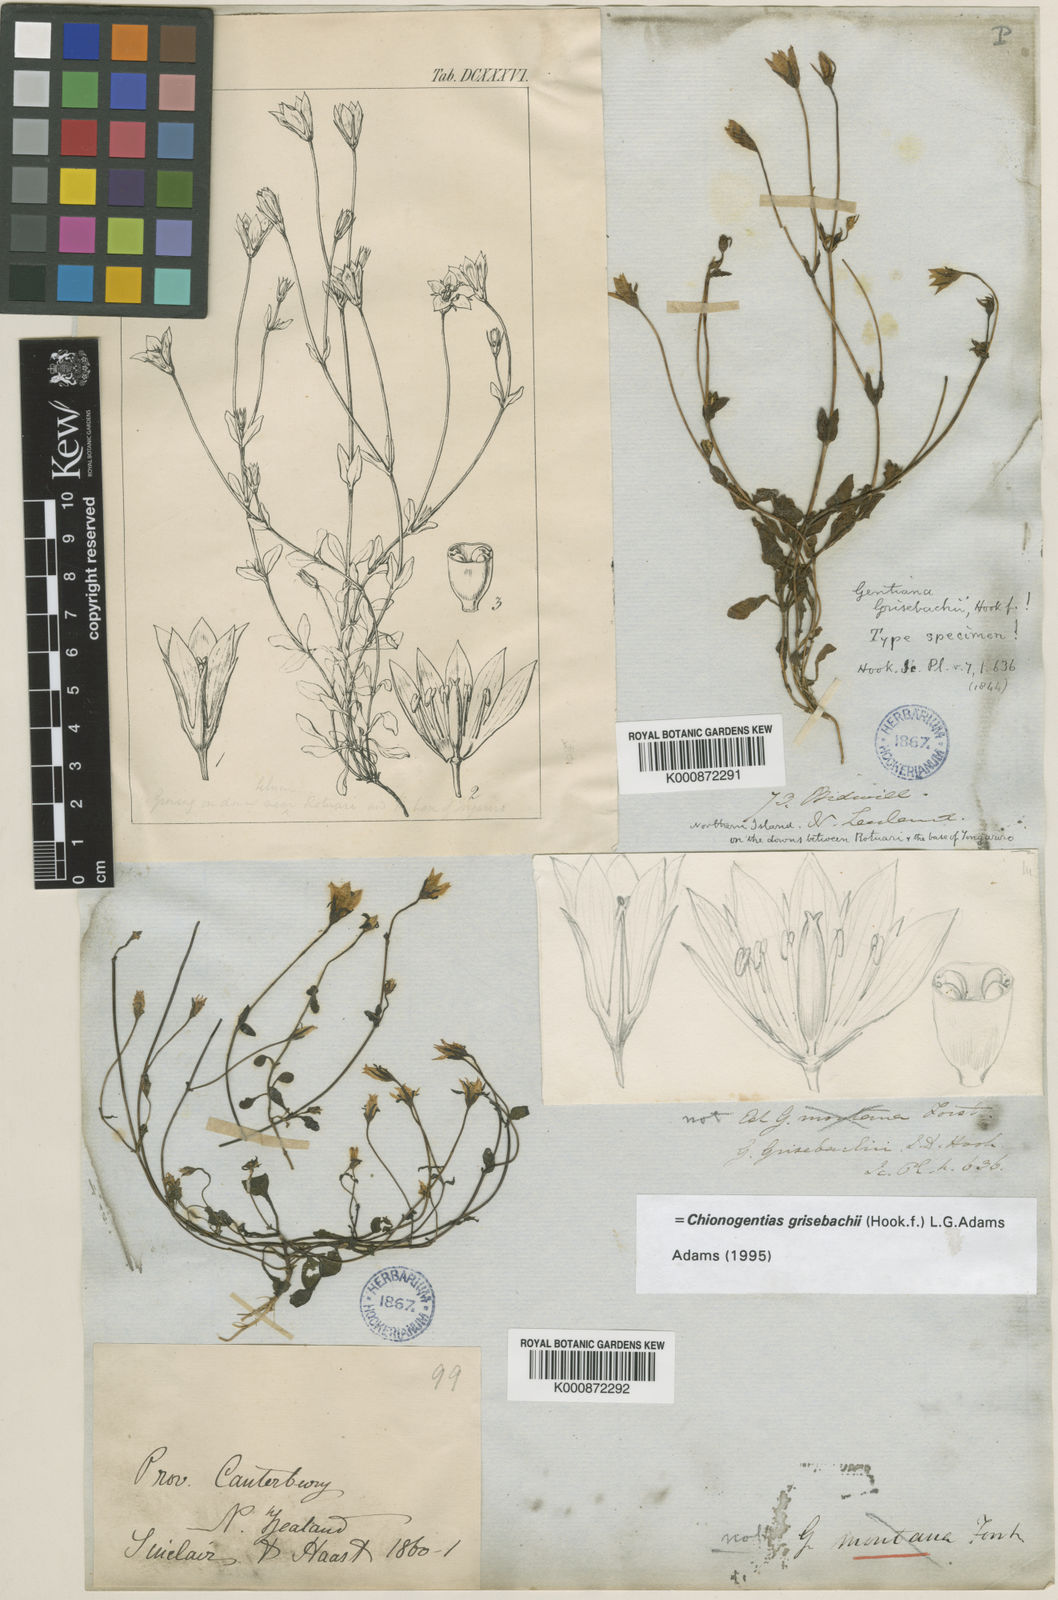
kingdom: Plantae
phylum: Tracheophyta
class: Magnoliopsida
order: Gentianales
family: Gentianaceae
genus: Gentianella
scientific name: Gentianella grisebachii
